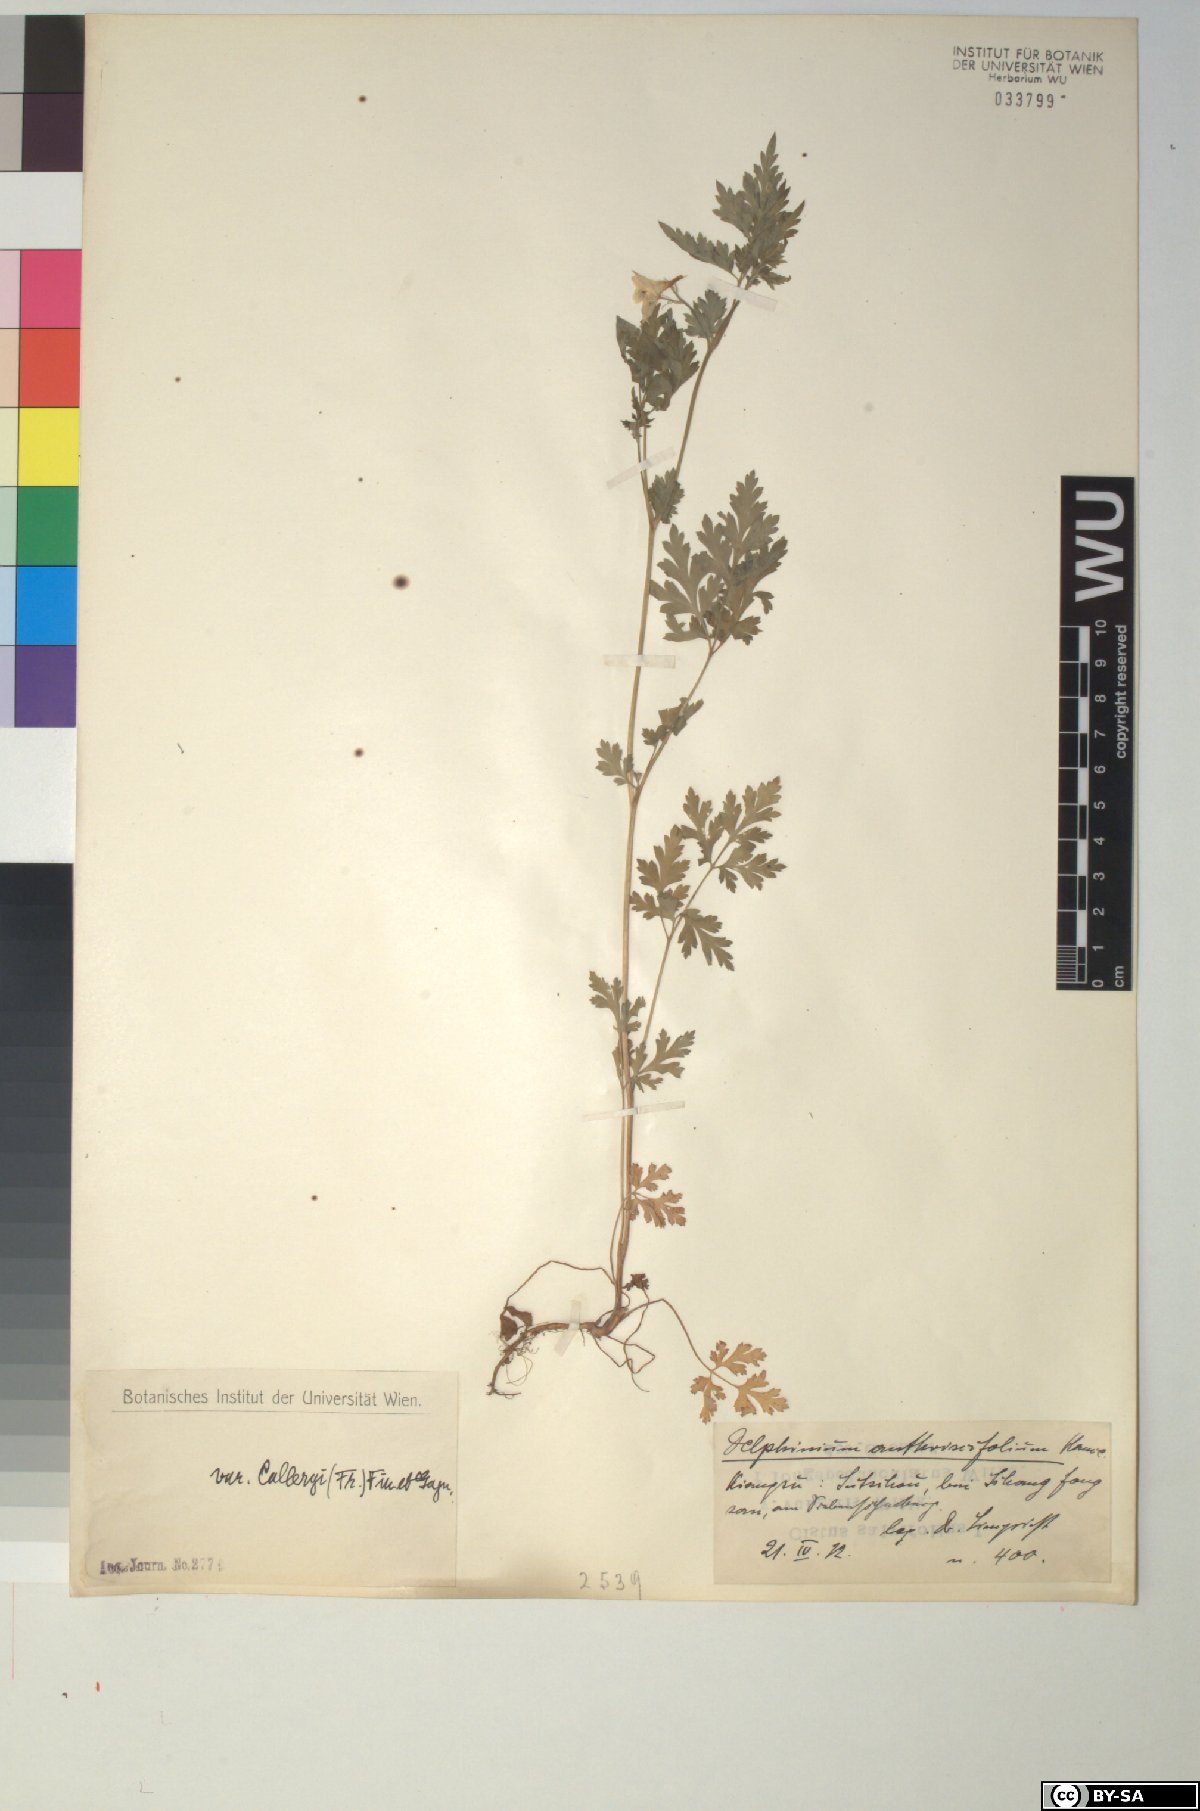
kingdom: Plantae
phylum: Tracheophyta
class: Magnoliopsida
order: Ranunculales
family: Ranunculaceae
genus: Delphinium
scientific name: Delphinium anthriscifolium
